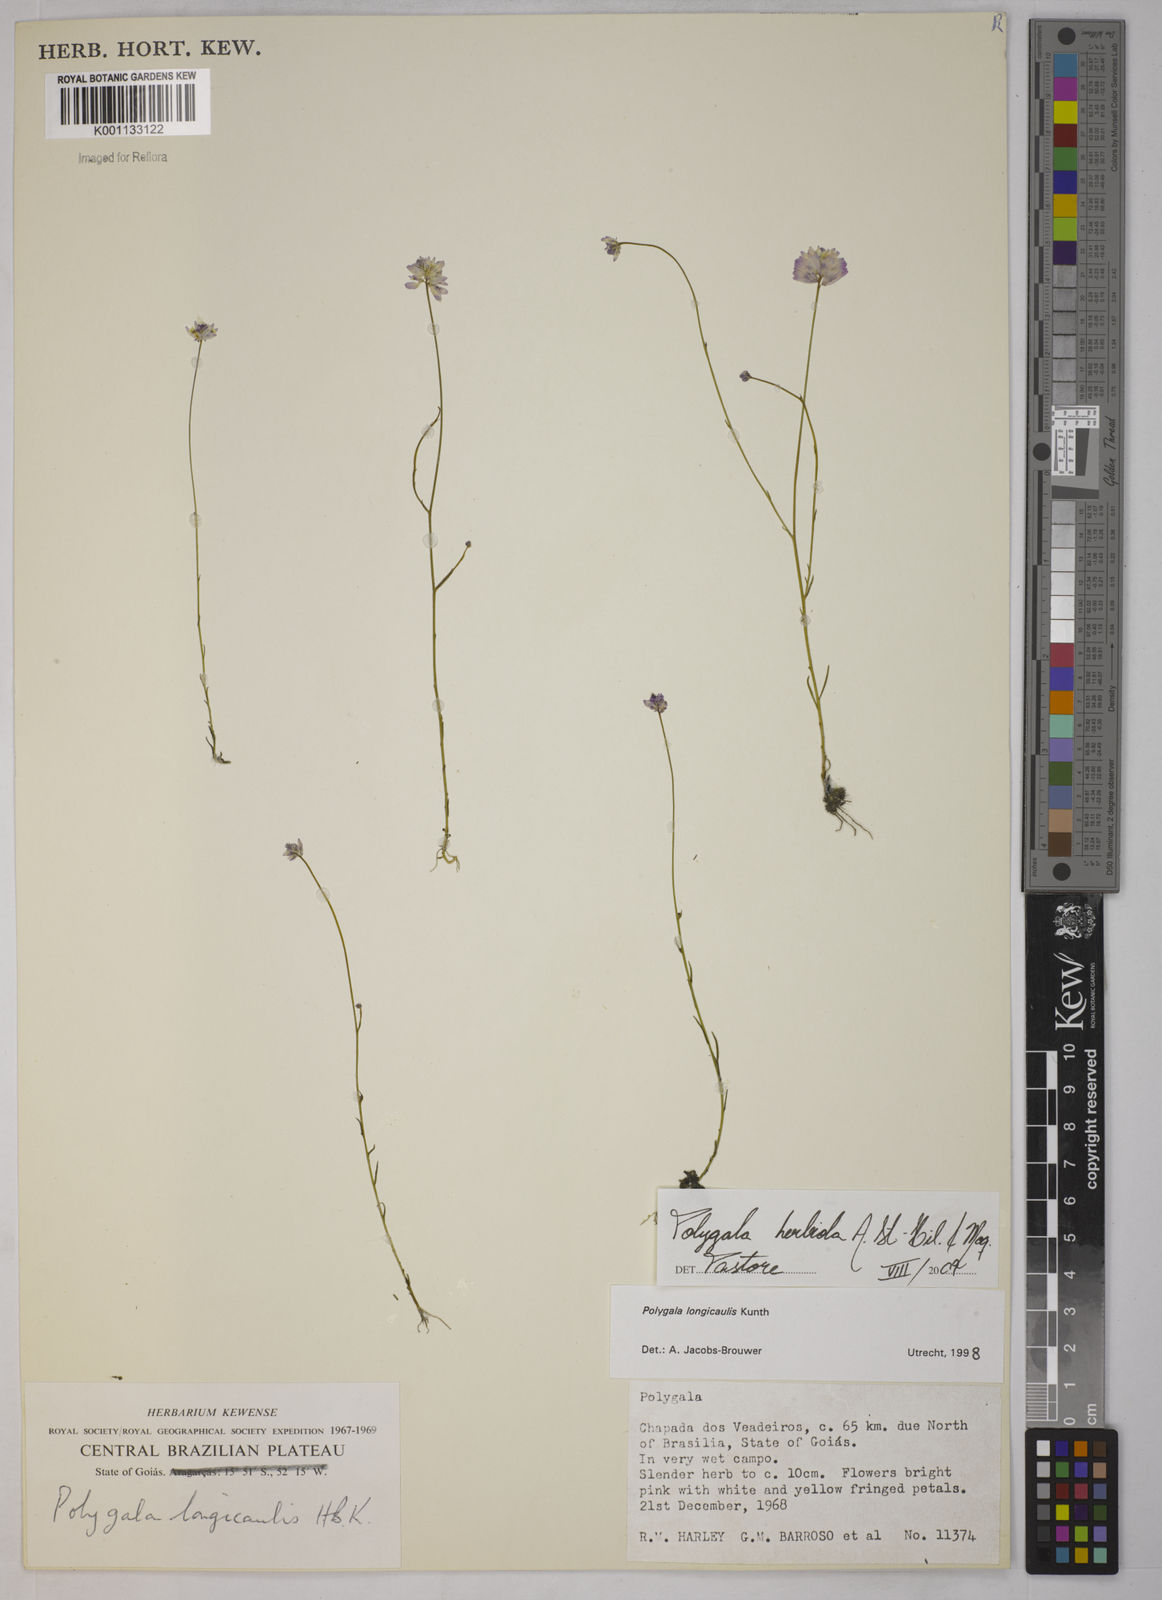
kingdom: Plantae
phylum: Tracheophyta
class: Magnoliopsida
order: Fabales
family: Polygalaceae
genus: Polygala
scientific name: Polygala herbiola
